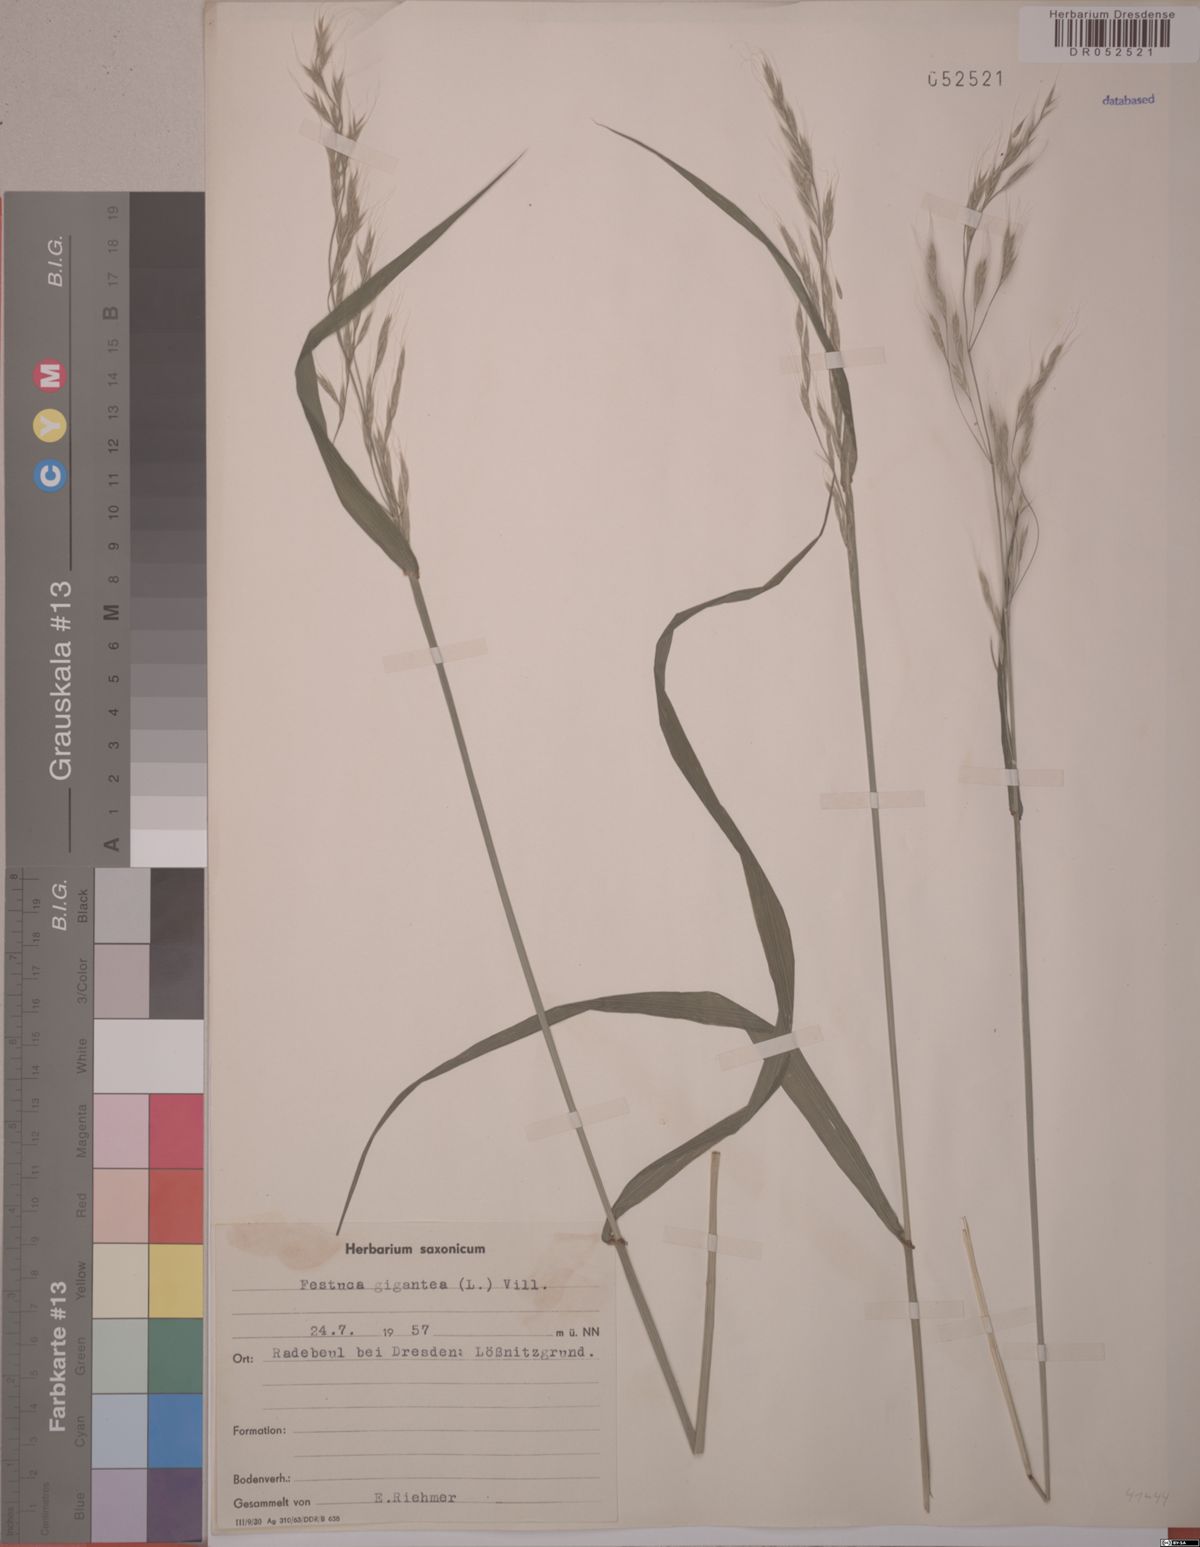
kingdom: Plantae
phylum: Tracheophyta
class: Liliopsida
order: Poales
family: Poaceae
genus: Lolium
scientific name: Lolium giganteum
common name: Giant fescue
